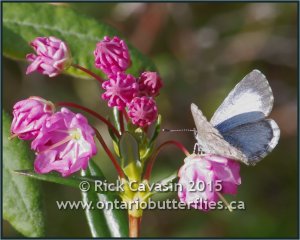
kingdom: Animalia
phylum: Arthropoda
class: Insecta
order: Lepidoptera
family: Lycaenidae
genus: Celastrina
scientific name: Celastrina lucia
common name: Northern Spring Azure
